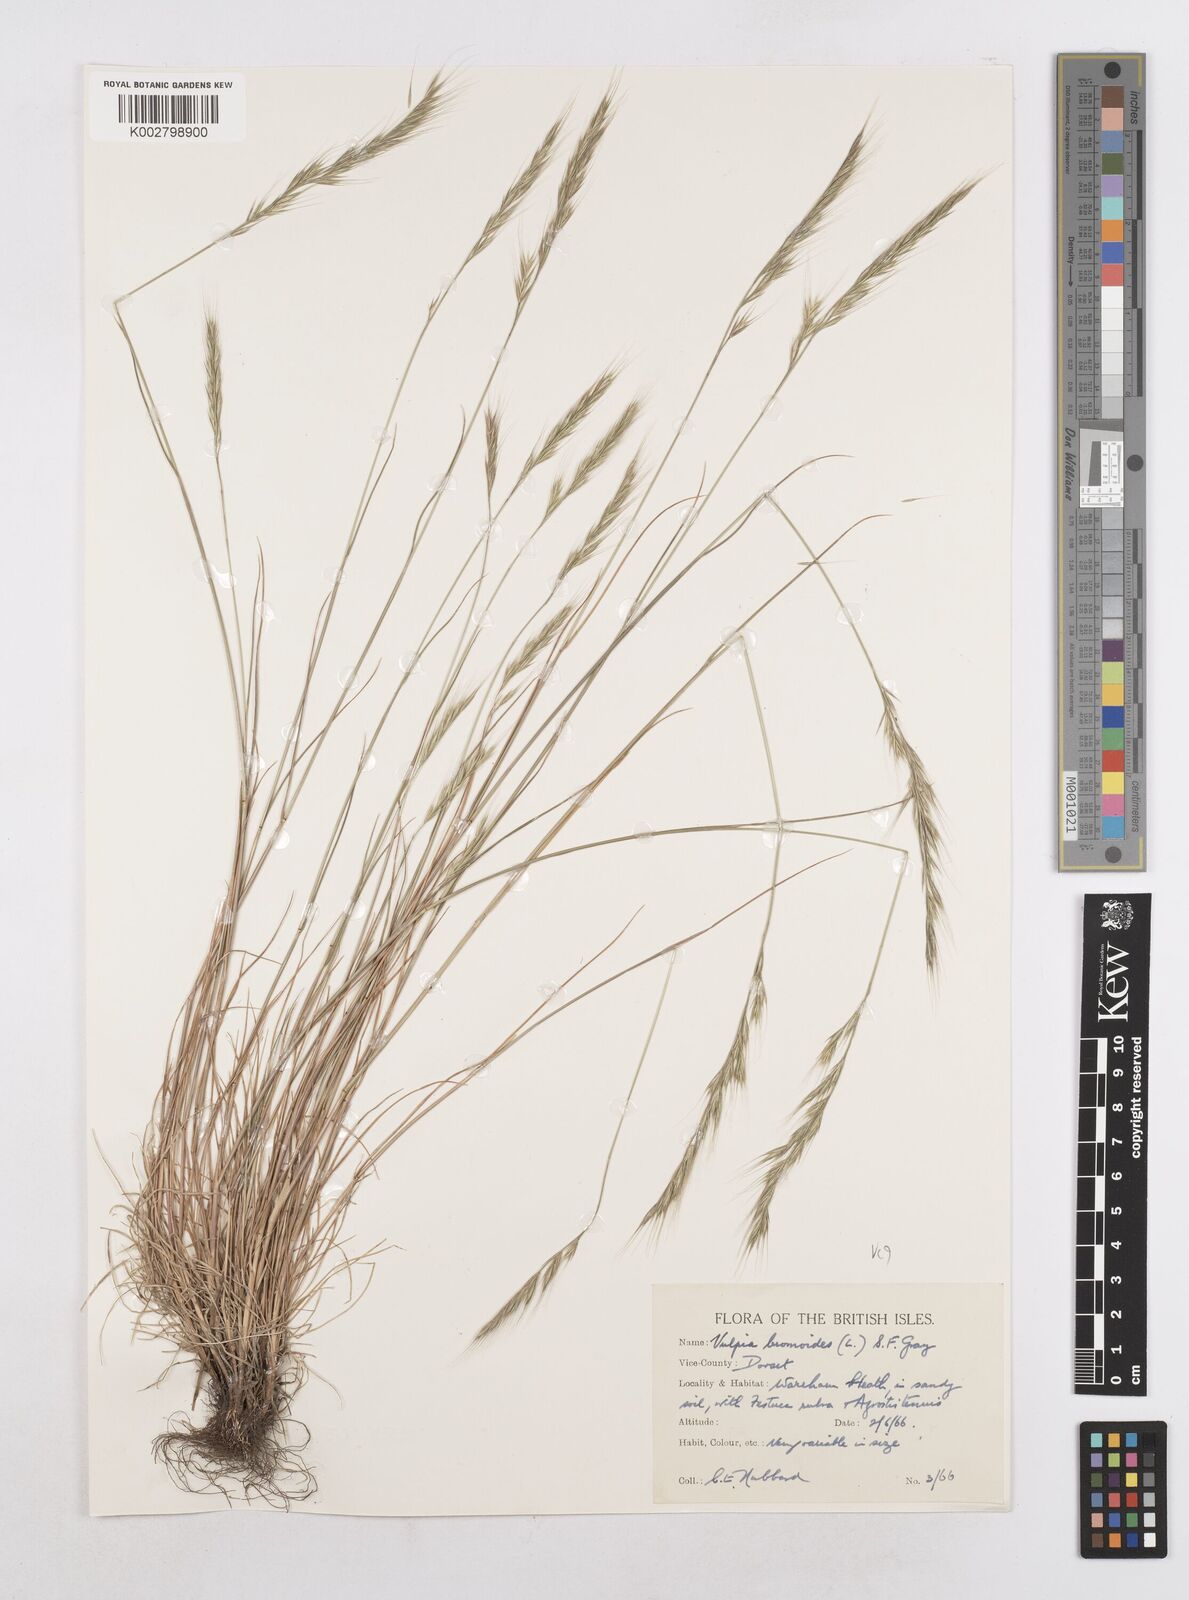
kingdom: Plantae
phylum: Tracheophyta
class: Liliopsida
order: Poales
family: Poaceae
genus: Festuca
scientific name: Festuca bromoides
